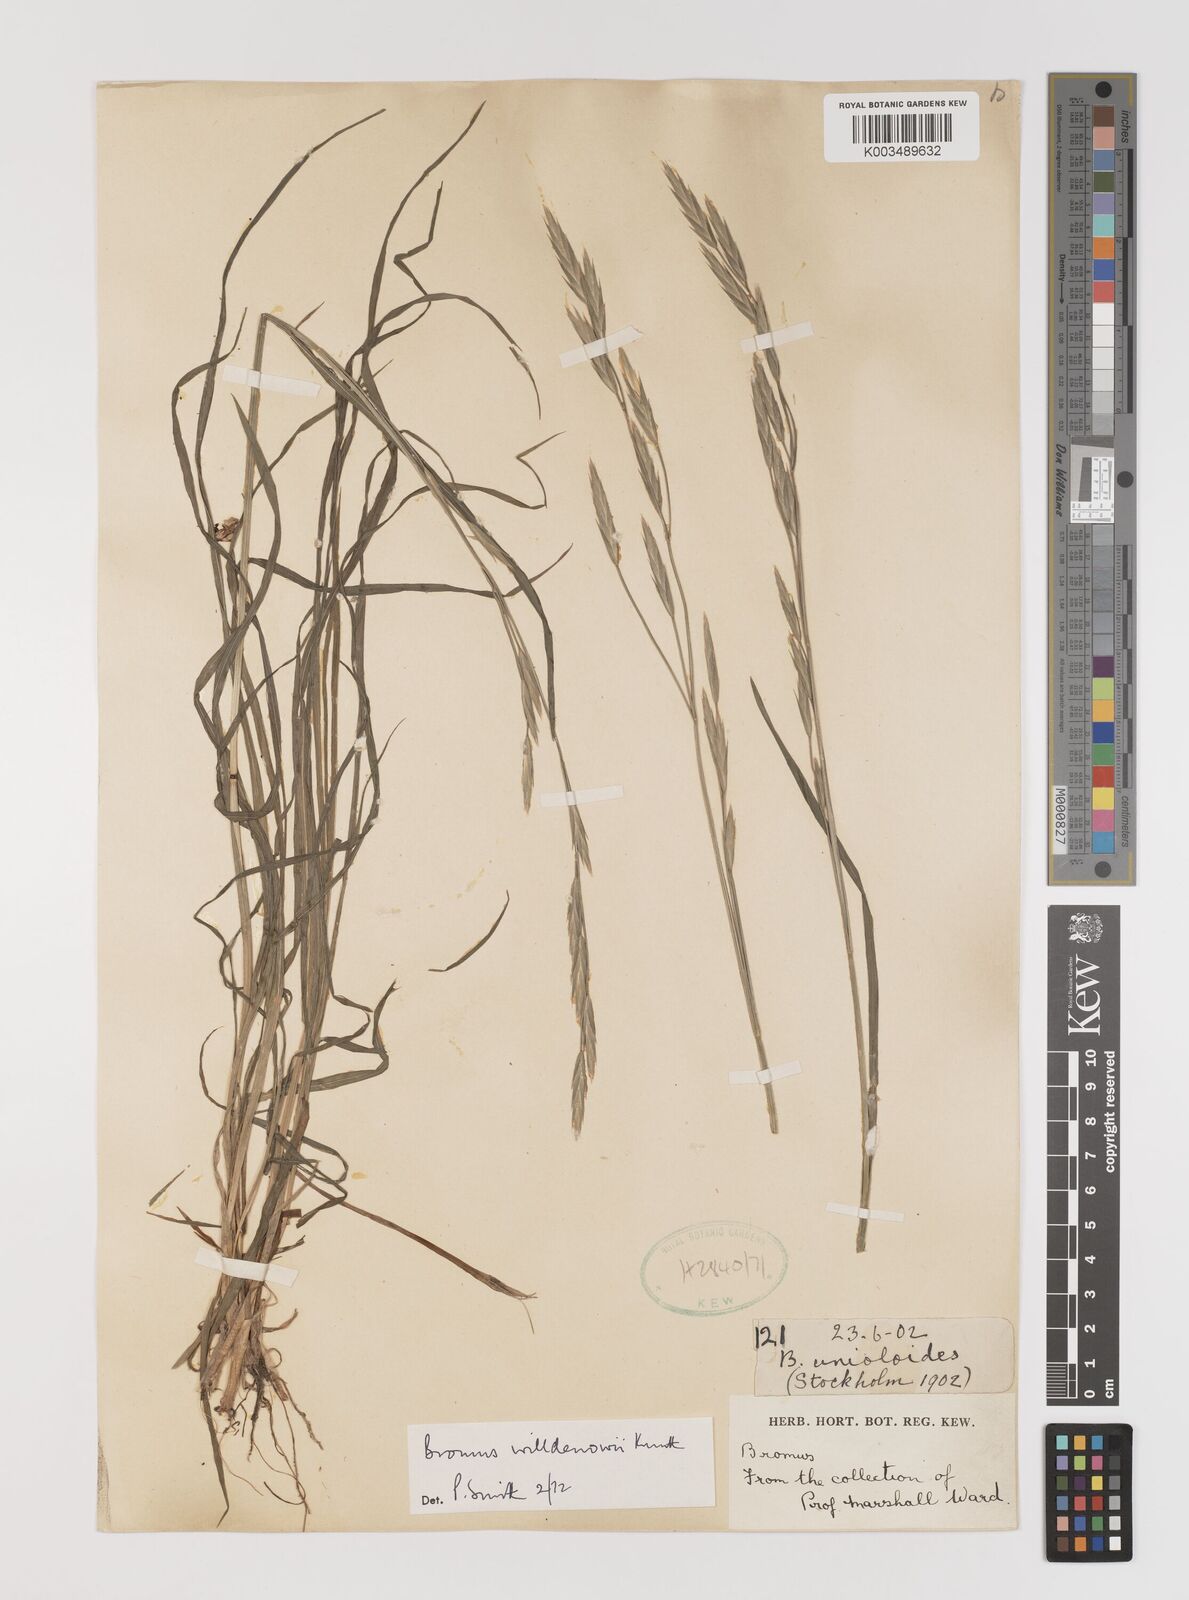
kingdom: Plantae
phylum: Tracheophyta
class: Liliopsida
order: Poales
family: Poaceae
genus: Bromus
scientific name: Bromus catharticus
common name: Rescuegrass
